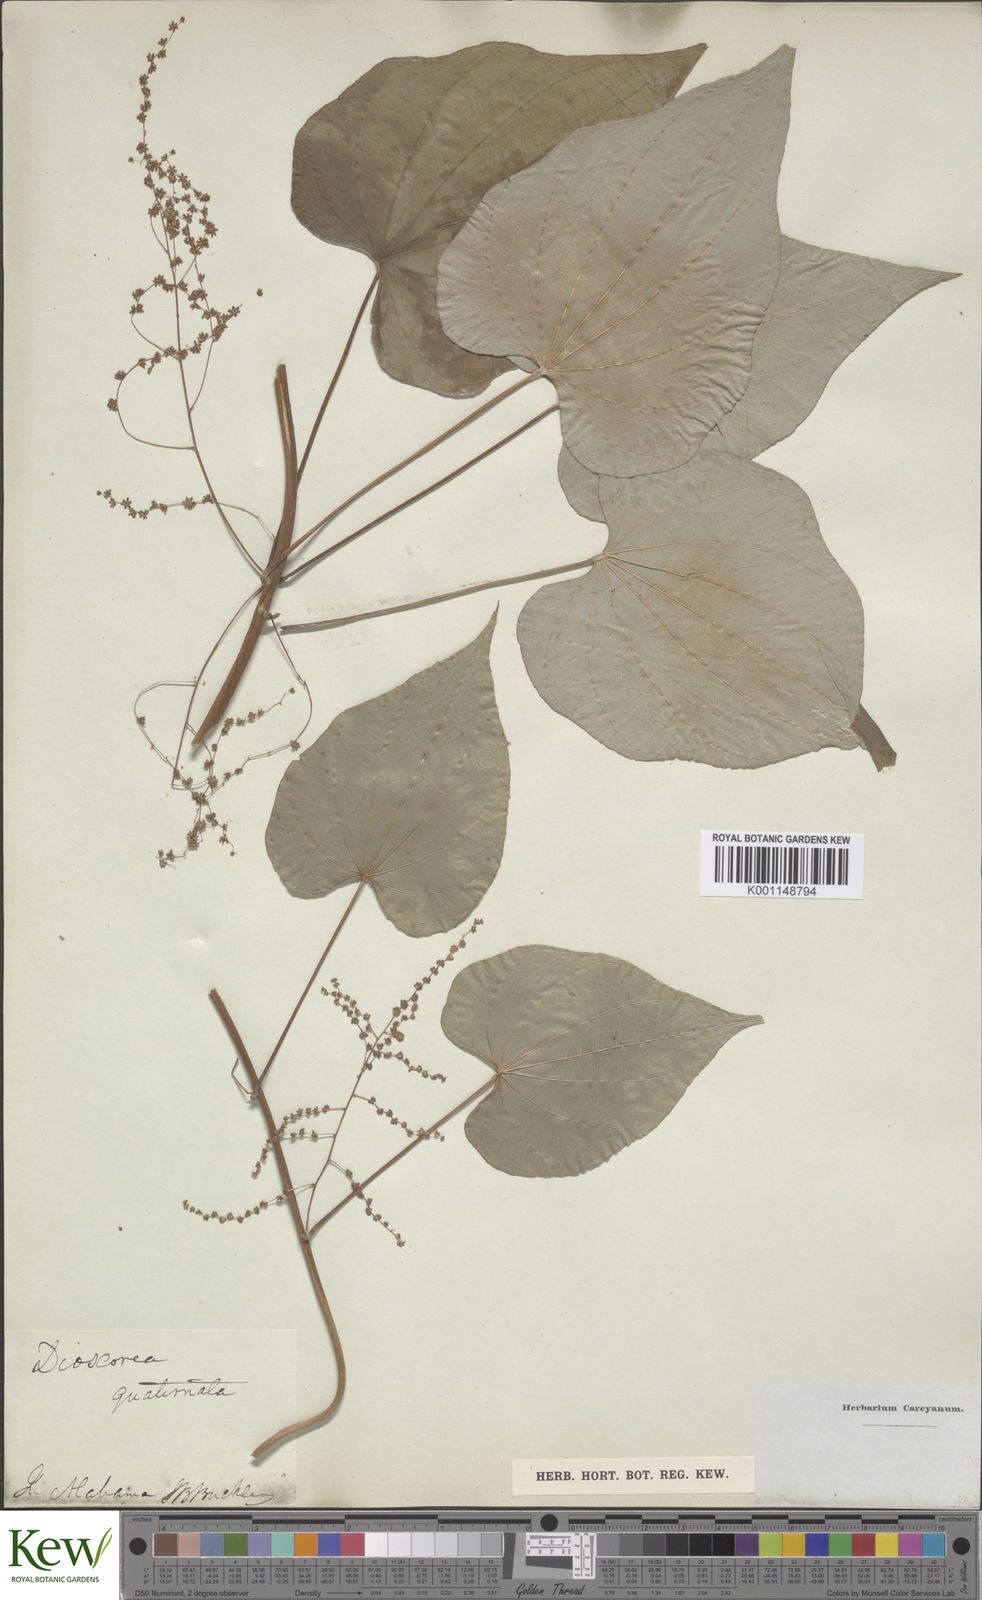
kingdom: Plantae
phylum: Tracheophyta
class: Liliopsida
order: Dioscoreales
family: Dioscoreaceae
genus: Dioscorea
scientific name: Dioscorea villosa
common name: Wild yam
